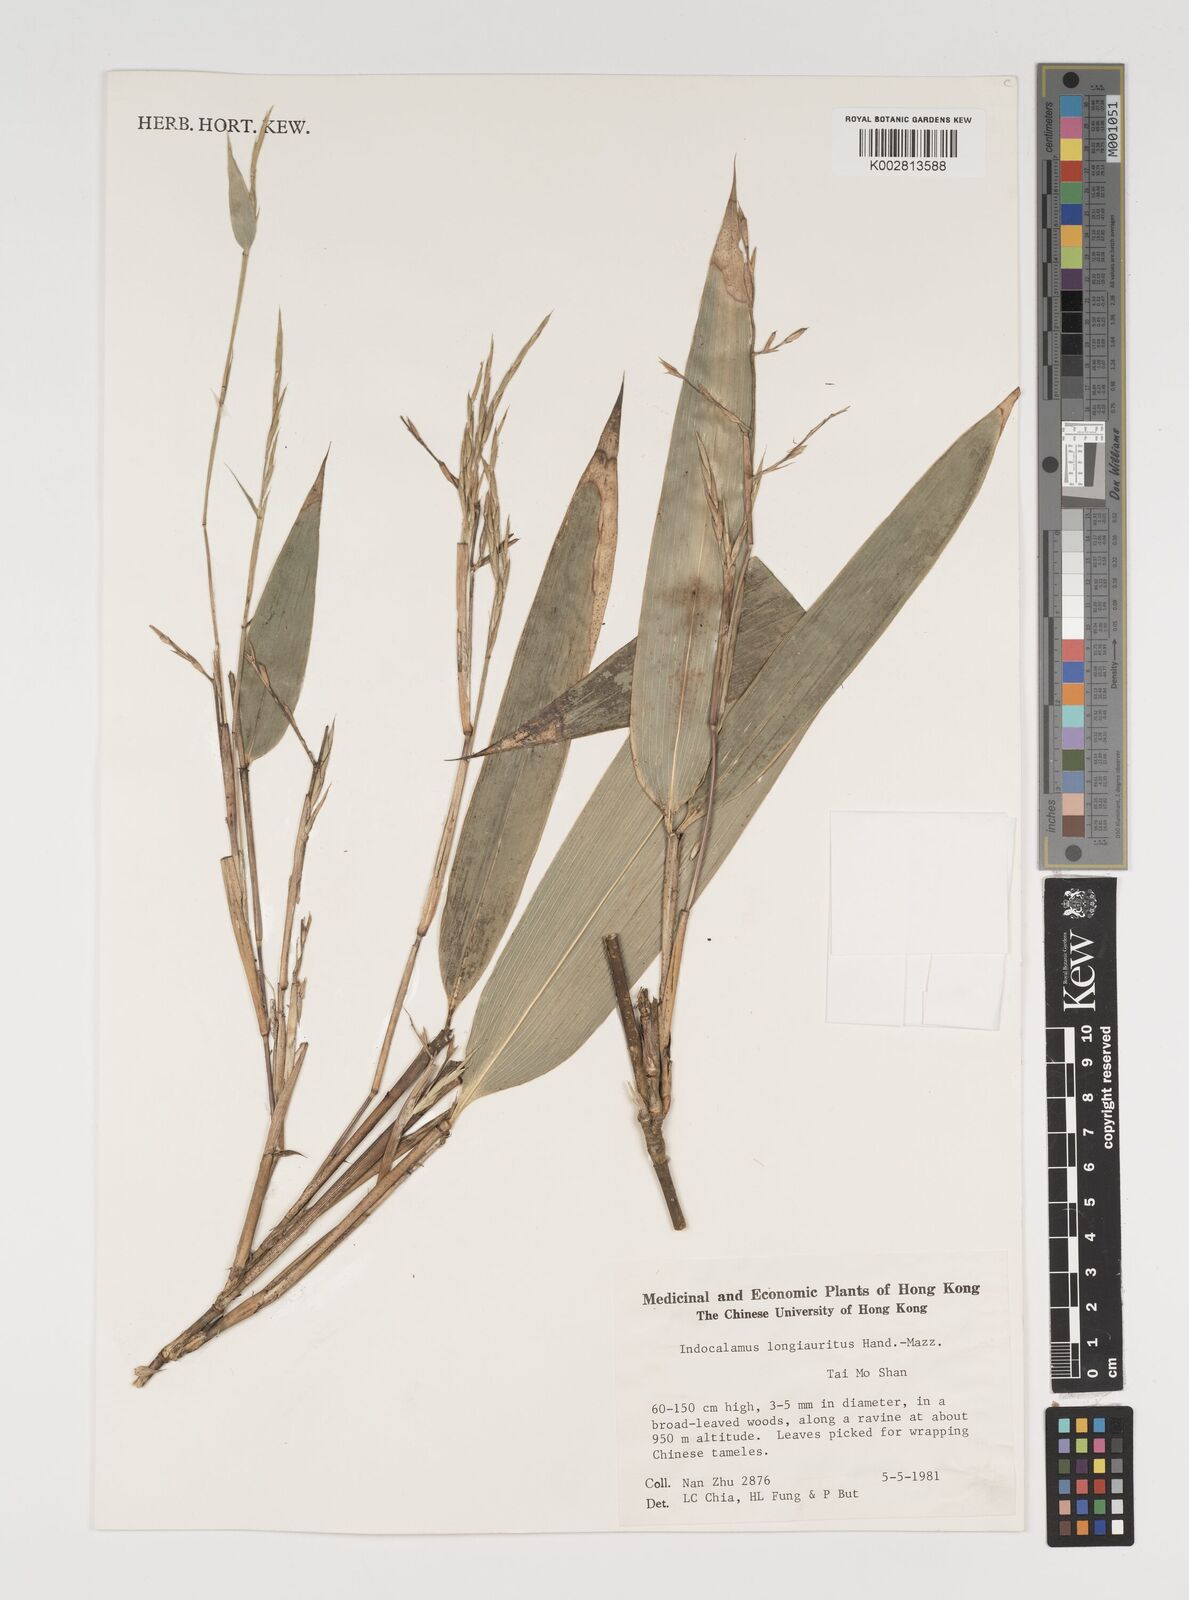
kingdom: Plantae
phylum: Tracheophyta
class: Liliopsida
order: Poales
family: Poaceae
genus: Indocalamus
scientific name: Indocalamus longiauritus
